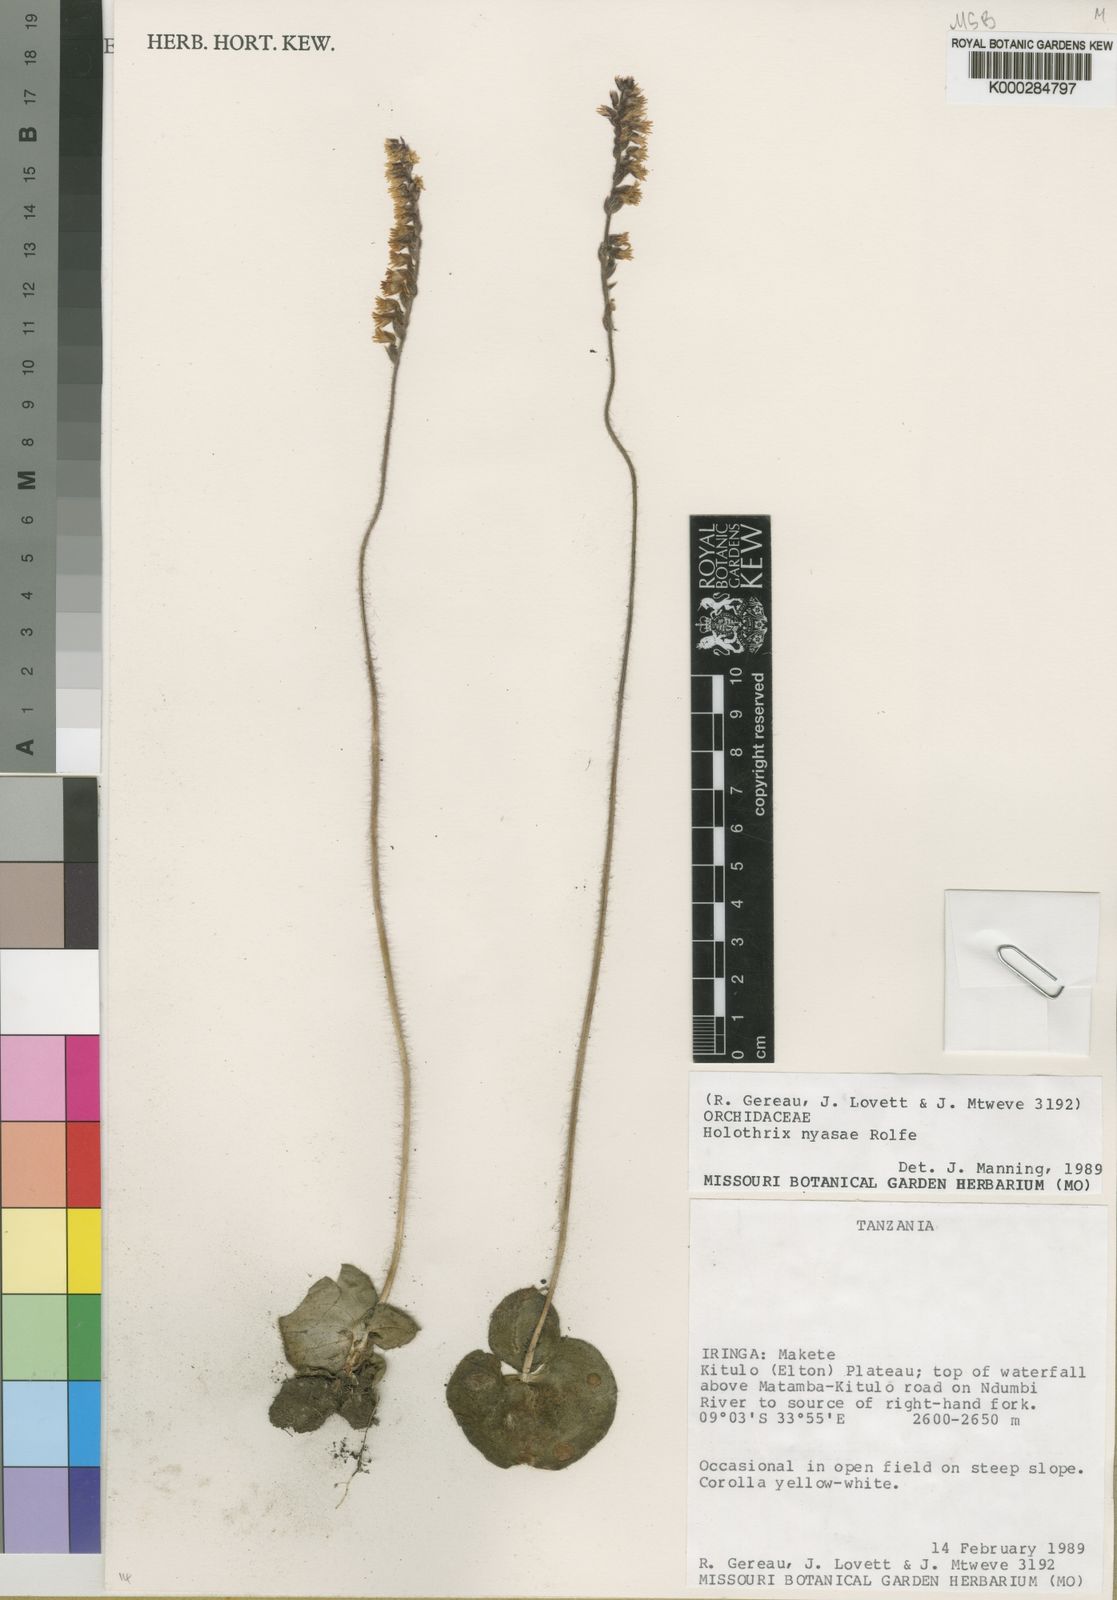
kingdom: Plantae
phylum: Tracheophyta
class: Liliopsida
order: Asparagales
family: Orchidaceae
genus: Holothrix
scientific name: Holothrix nyasae
